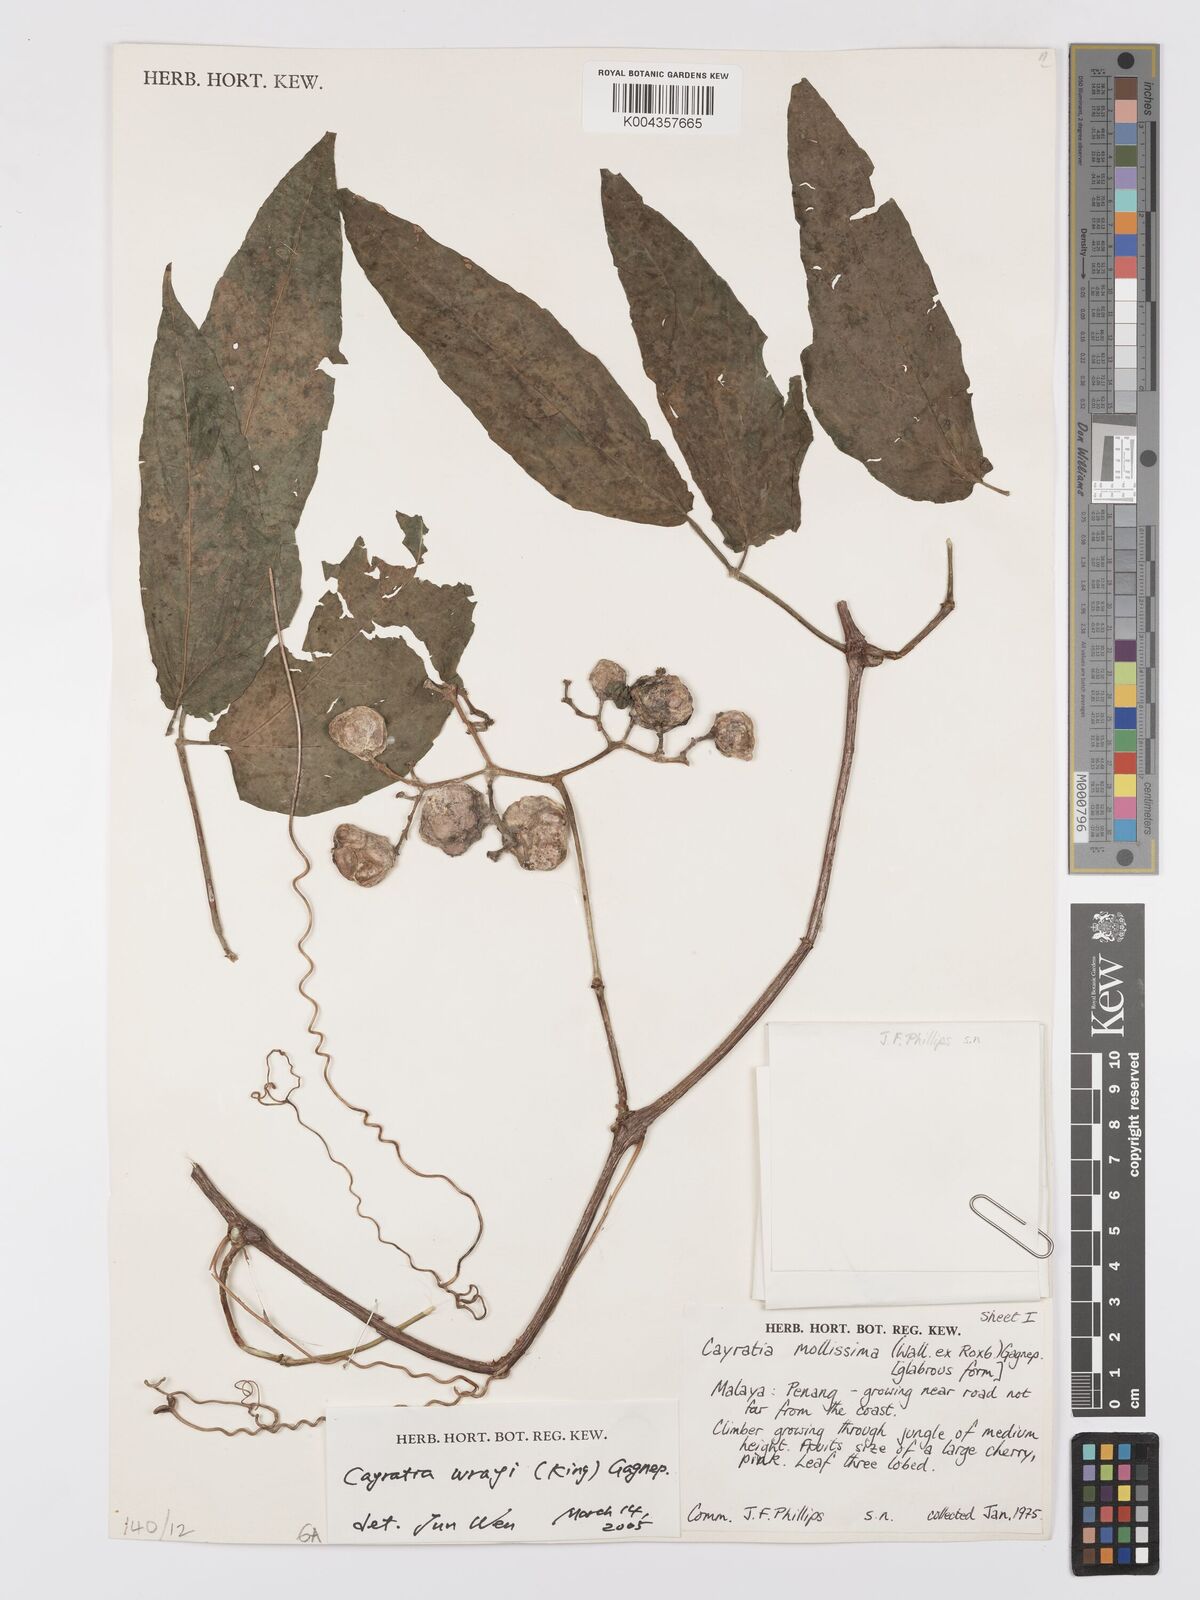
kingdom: Plantae
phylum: Tracheophyta
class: Magnoliopsida
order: Vitales
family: Vitaceae
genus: Cayratia
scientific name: Cayratia mollissima
